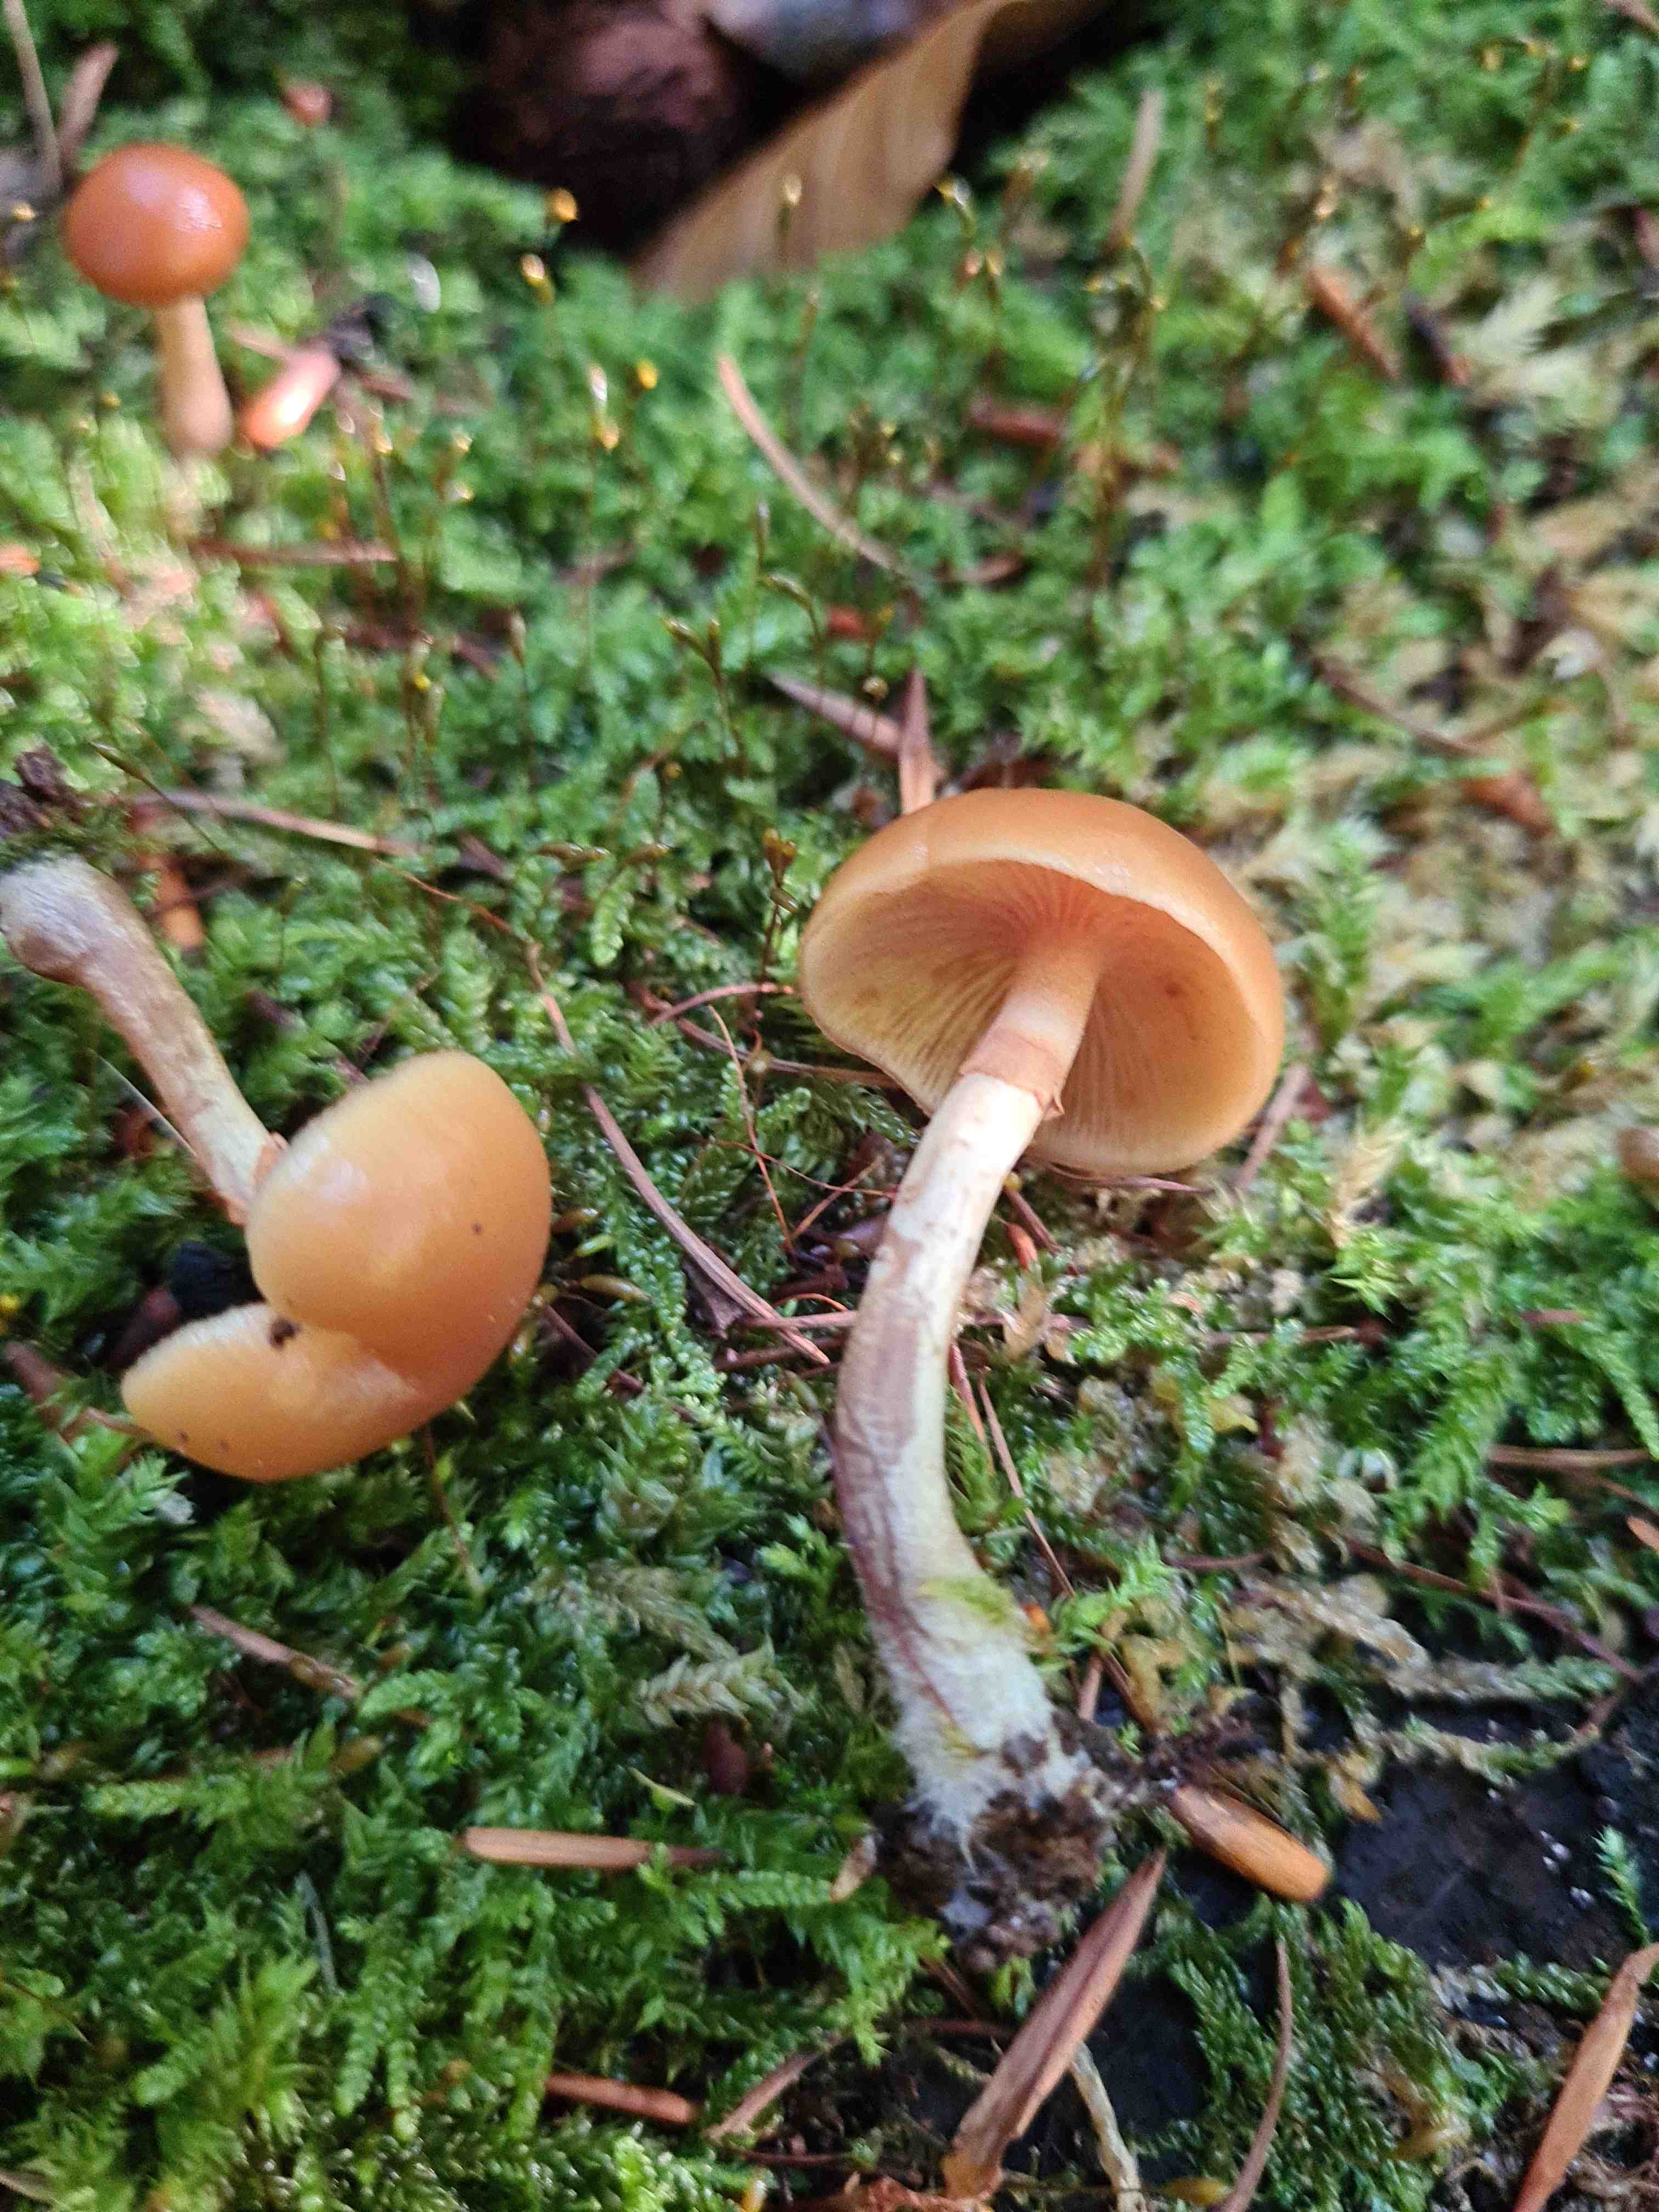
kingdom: Fungi
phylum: Basidiomycota
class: Agaricomycetes
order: Agaricales
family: Hymenogastraceae
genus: Galerina
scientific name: Galerina marginata
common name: randbæltet hjelmhat
